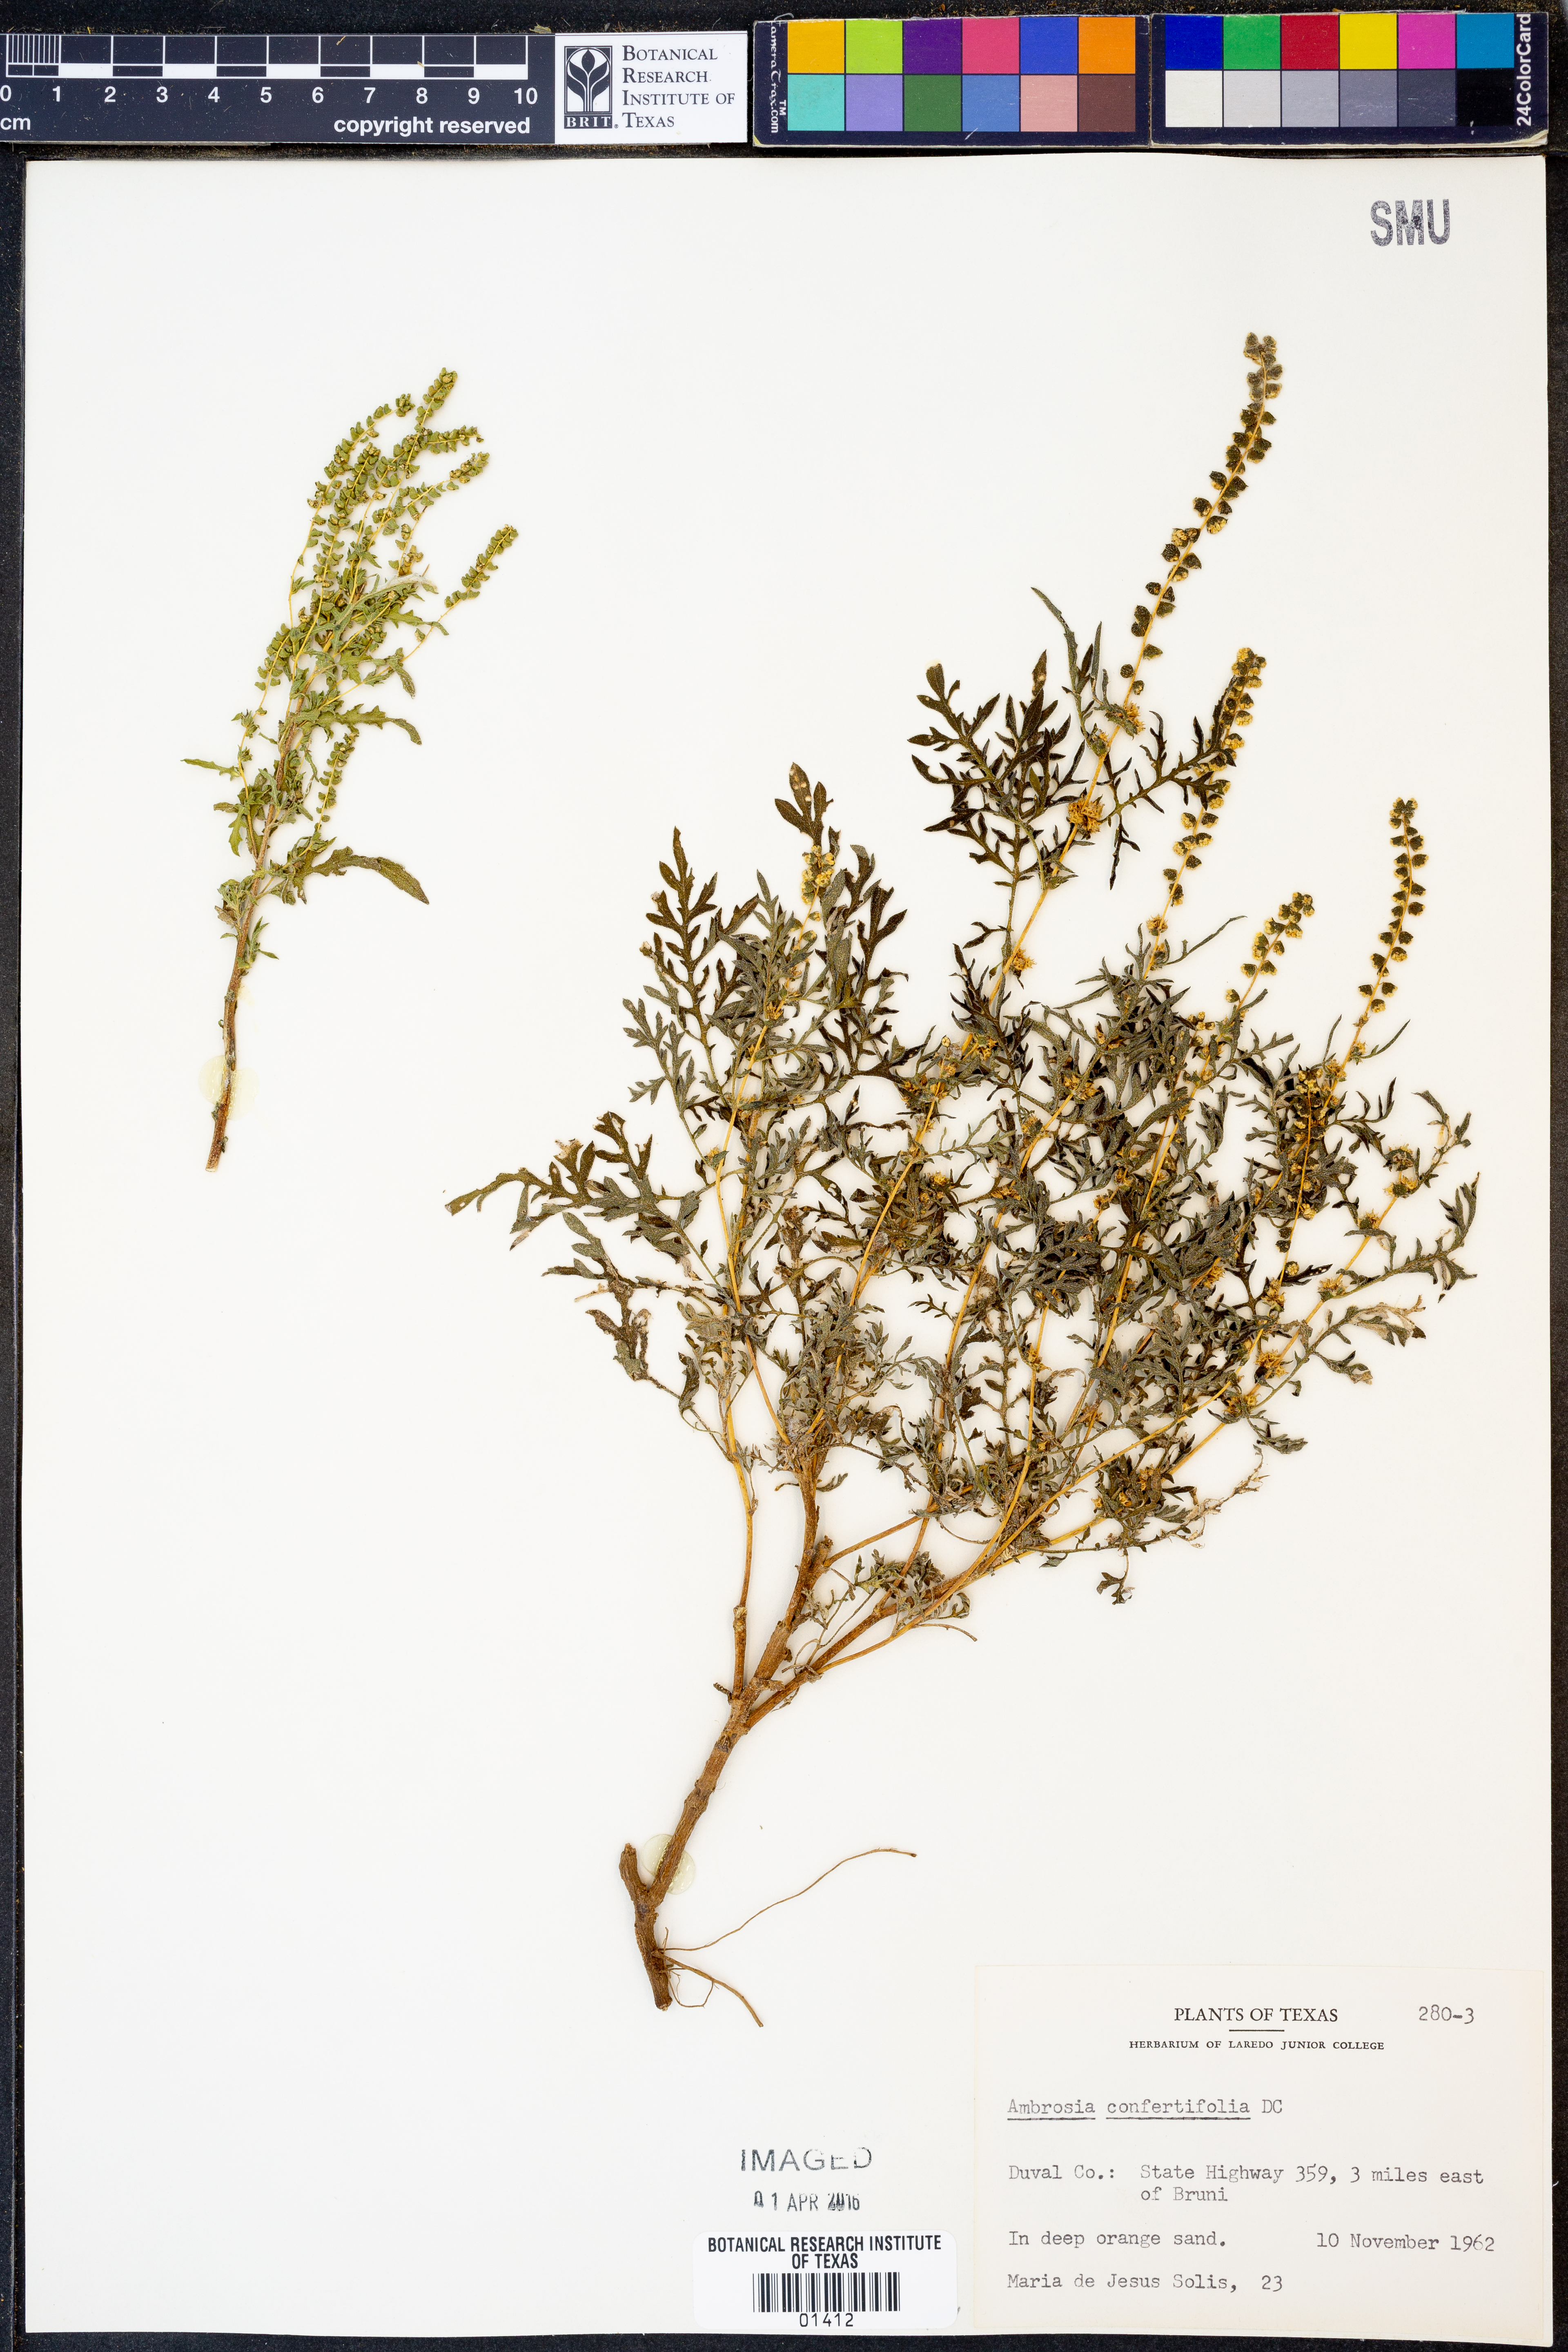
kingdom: Plantae
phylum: Tracheophyta
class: Magnoliopsida
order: Asterales
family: Asteraceae
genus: Ambrosia
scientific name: Ambrosia confertiflora
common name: Bur ragweed
